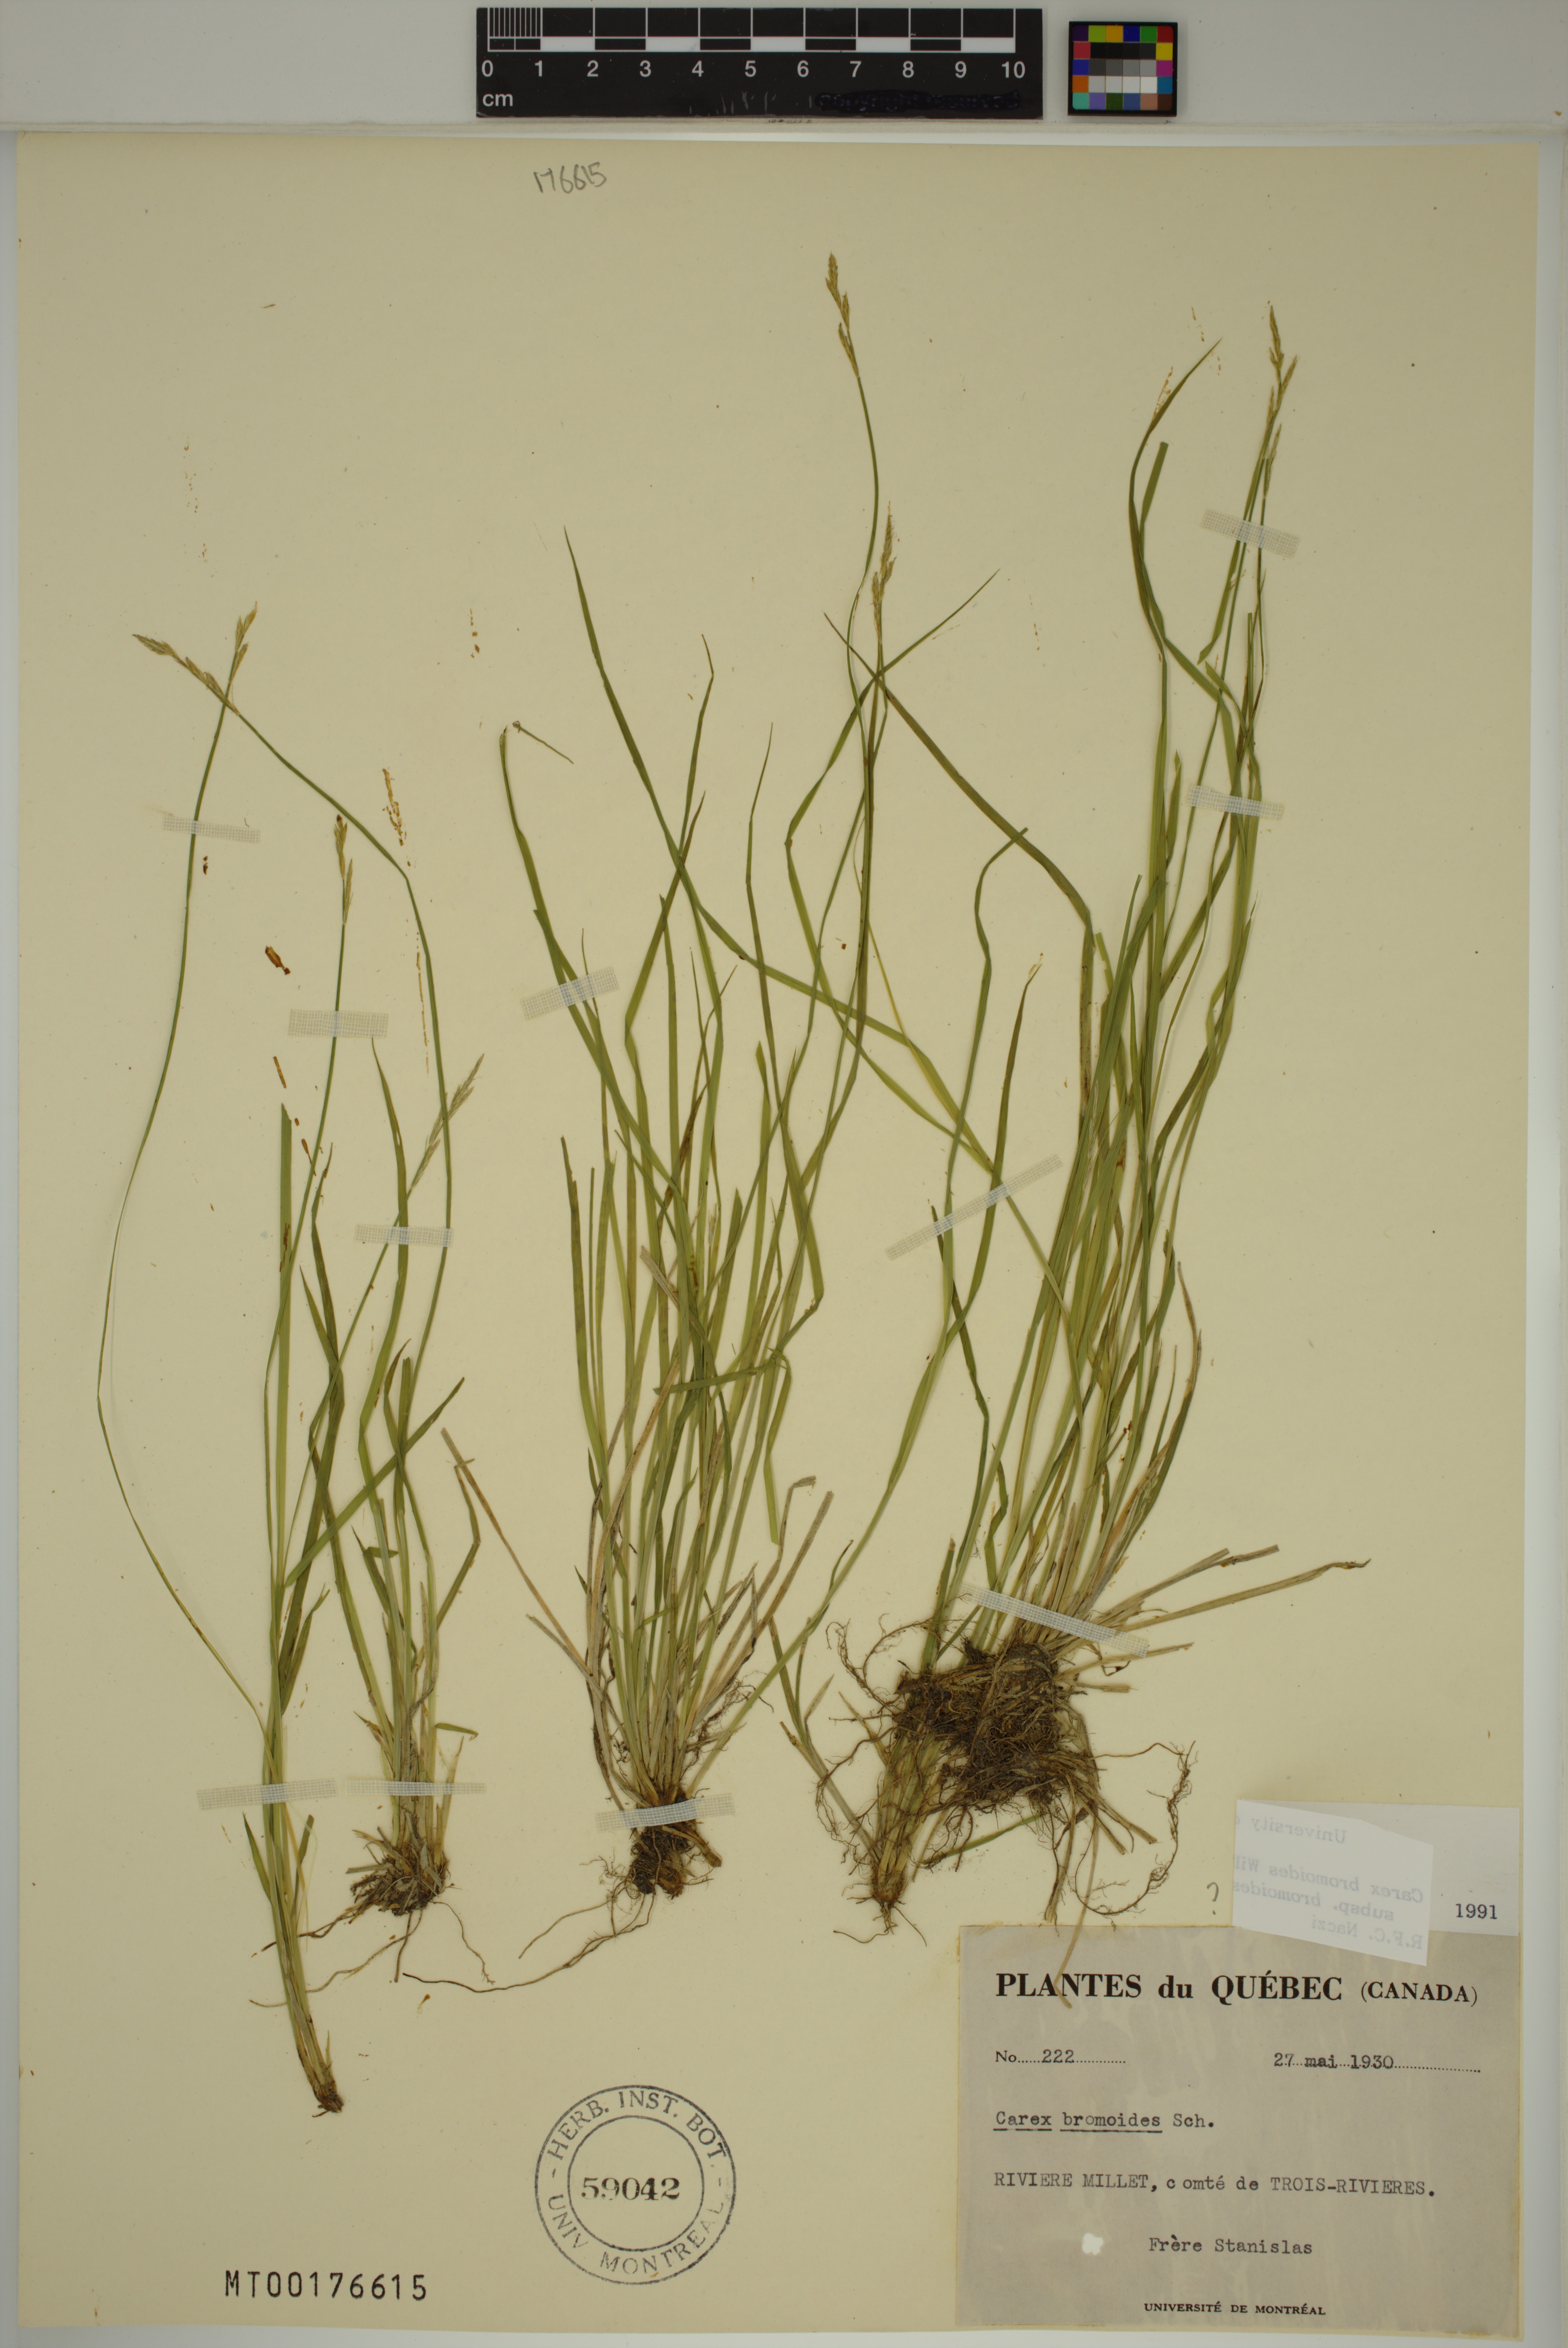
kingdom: Plantae
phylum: Tracheophyta
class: Liliopsida
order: Poales
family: Cyperaceae
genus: Carex
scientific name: Carex bromoides
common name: Brome hummock sedge
